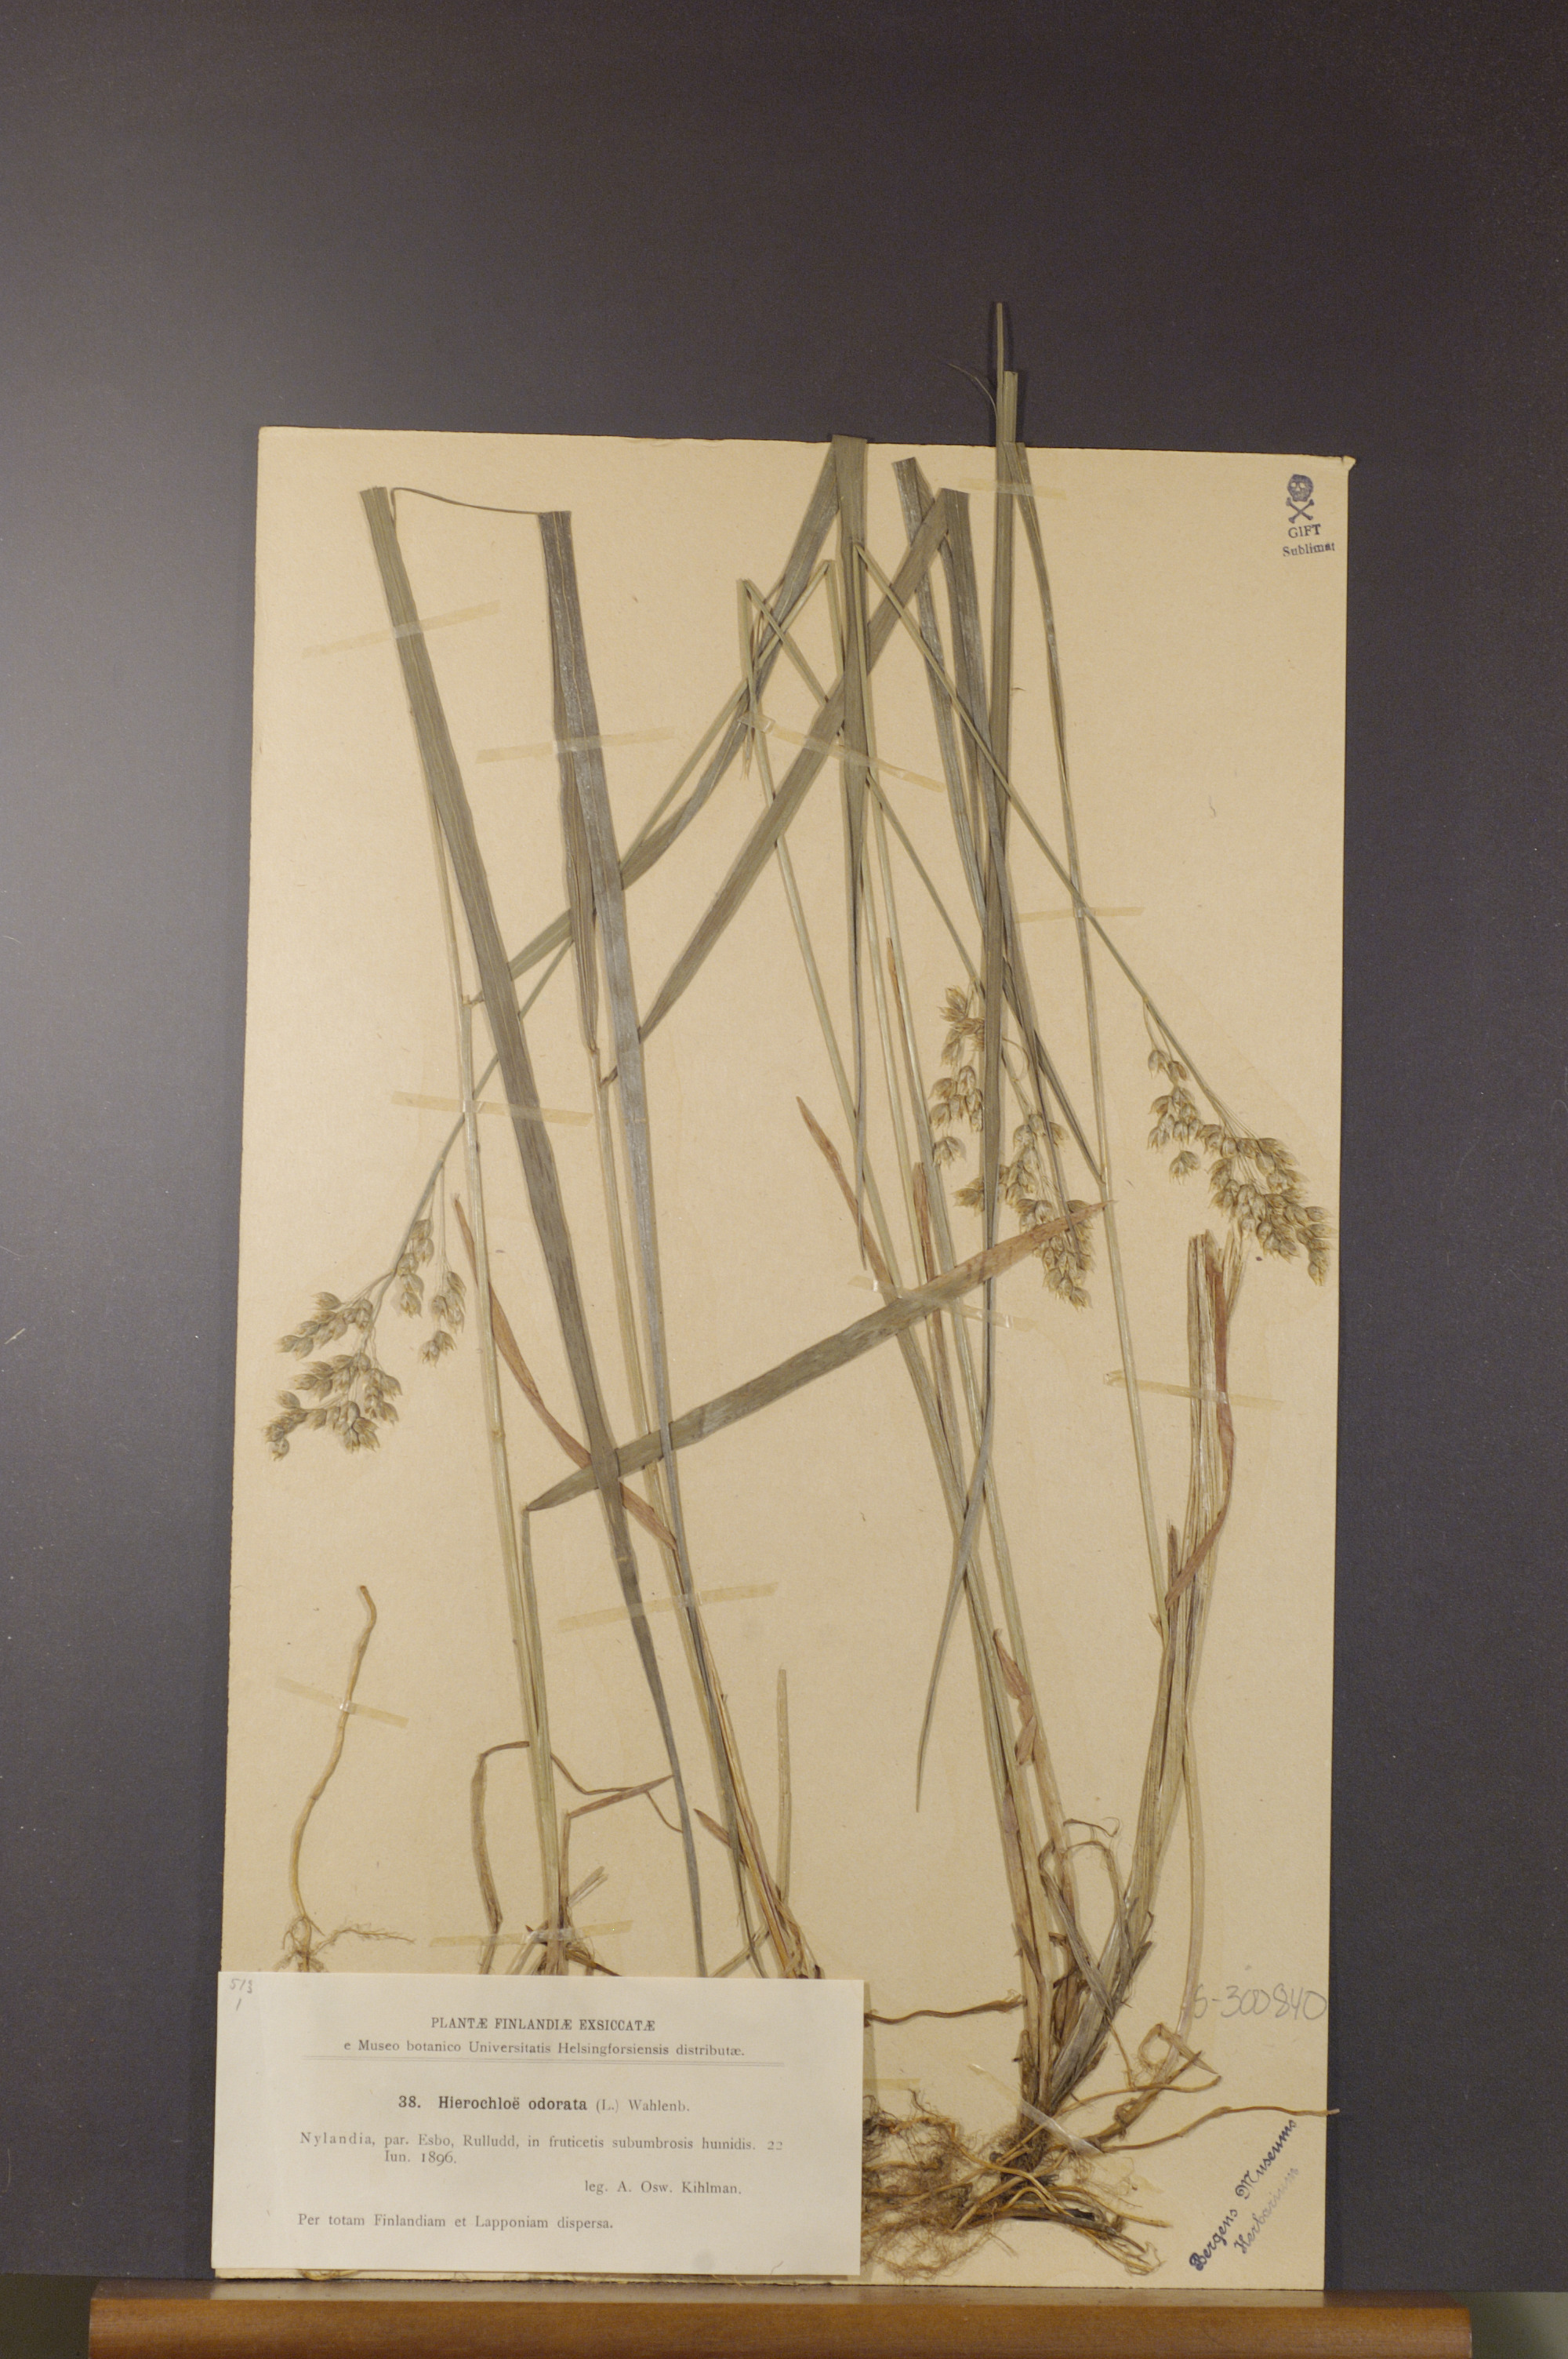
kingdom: Plantae
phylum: Tracheophyta
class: Liliopsida
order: Poales
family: Poaceae
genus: Anthoxanthum
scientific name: Anthoxanthum nitens
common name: Holy grass
